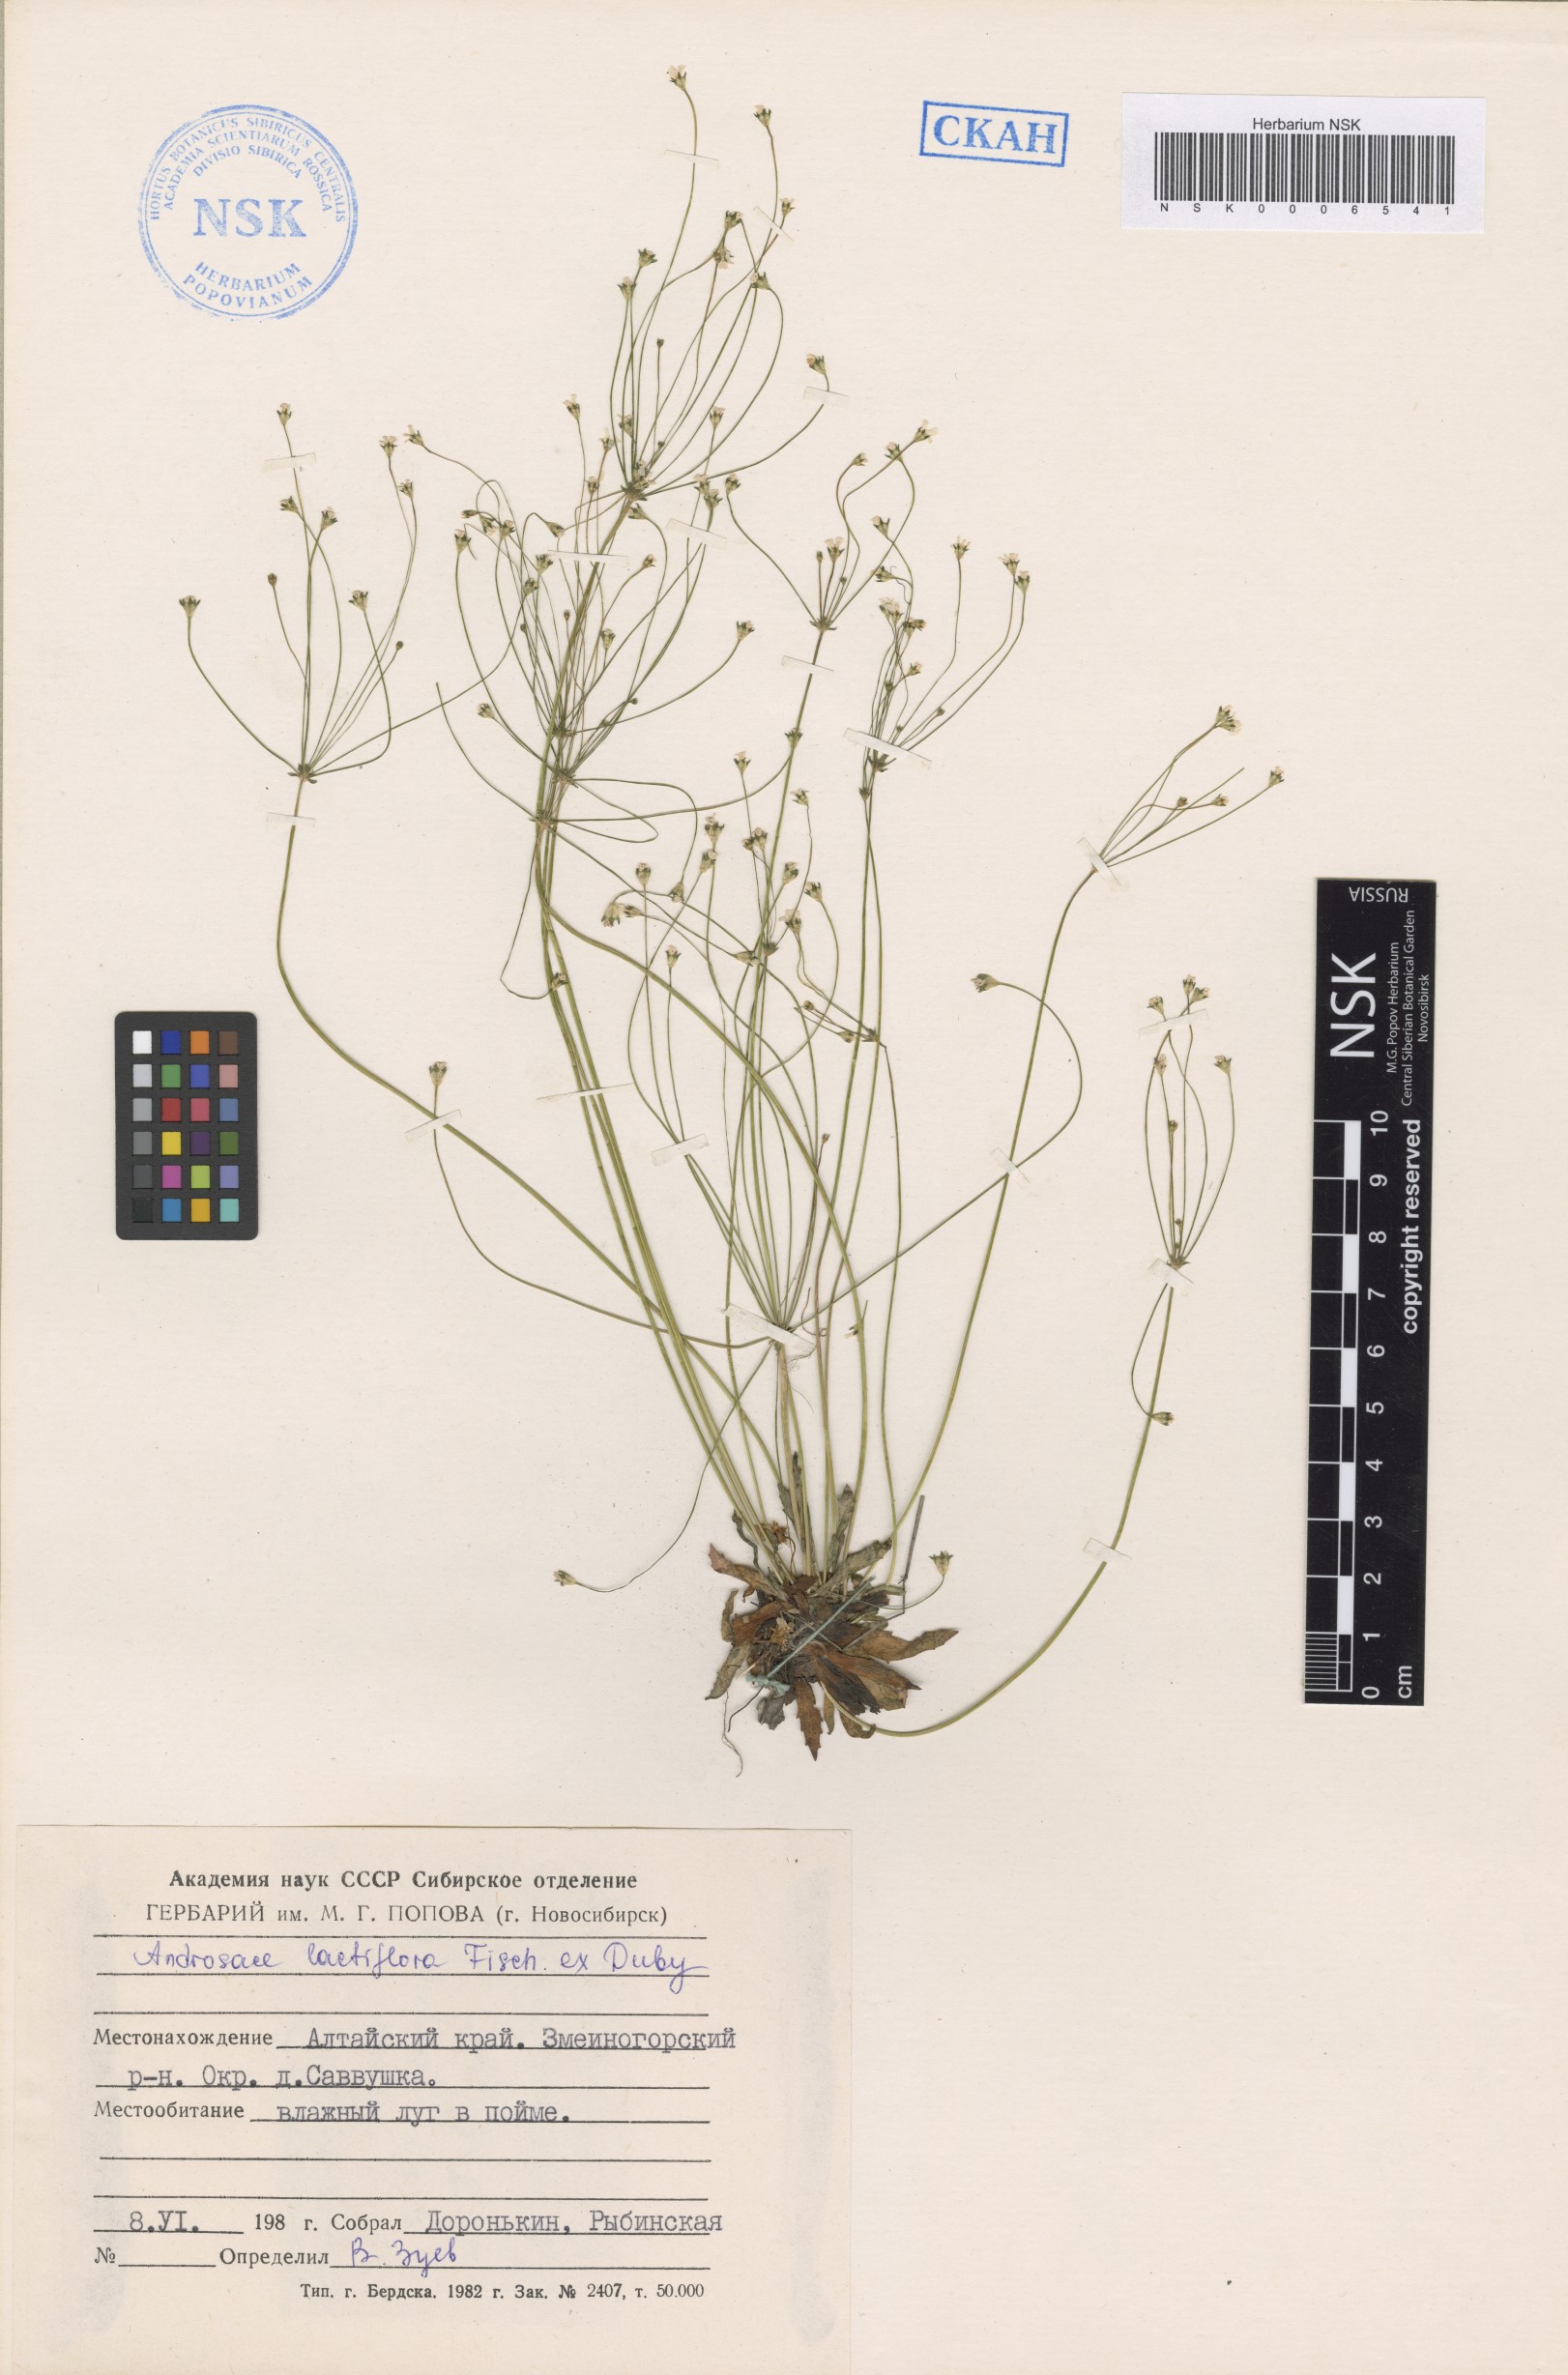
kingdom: Plantae
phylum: Tracheophyta
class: Magnoliopsida
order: Ericales
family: Primulaceae
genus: Androsace
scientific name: Androsace lactiflora
